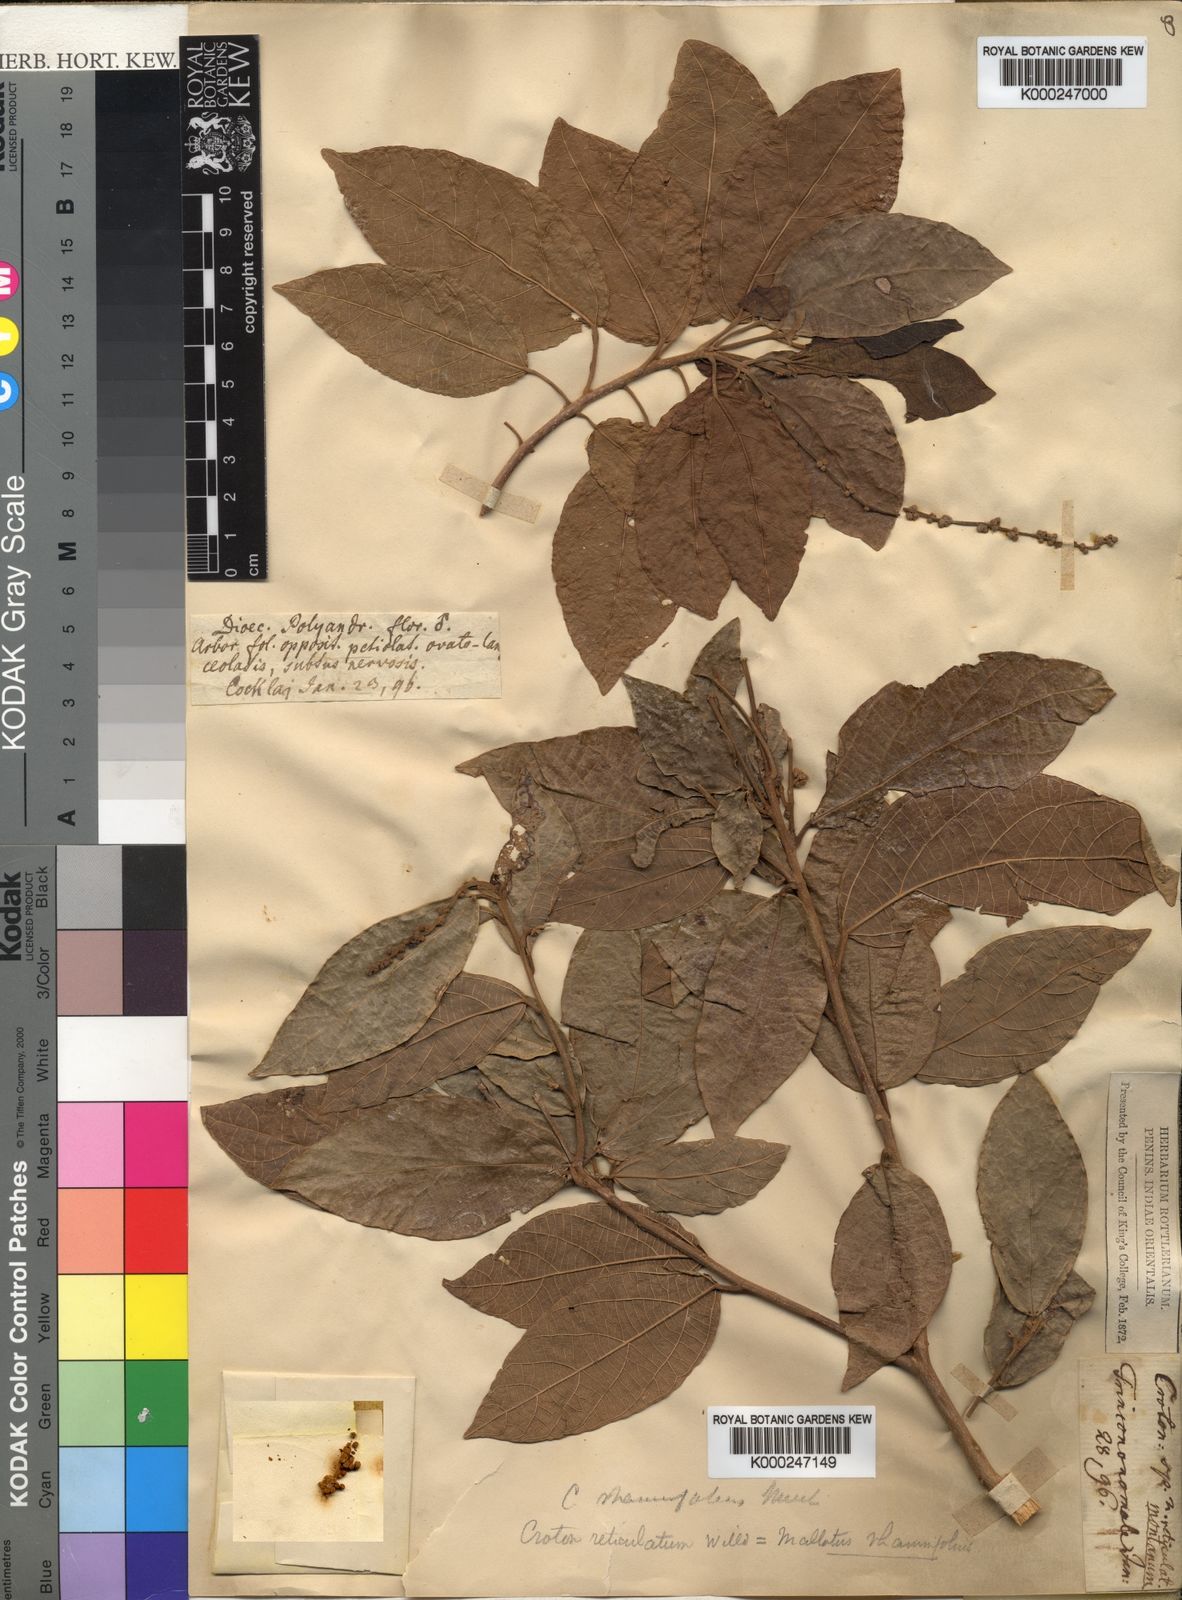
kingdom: Plantae
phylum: Tracheophyta
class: Magnoliopsida
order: Malpighiales
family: Euphorbiaceae
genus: Mallotus
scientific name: Mallotus rhamnifolius
